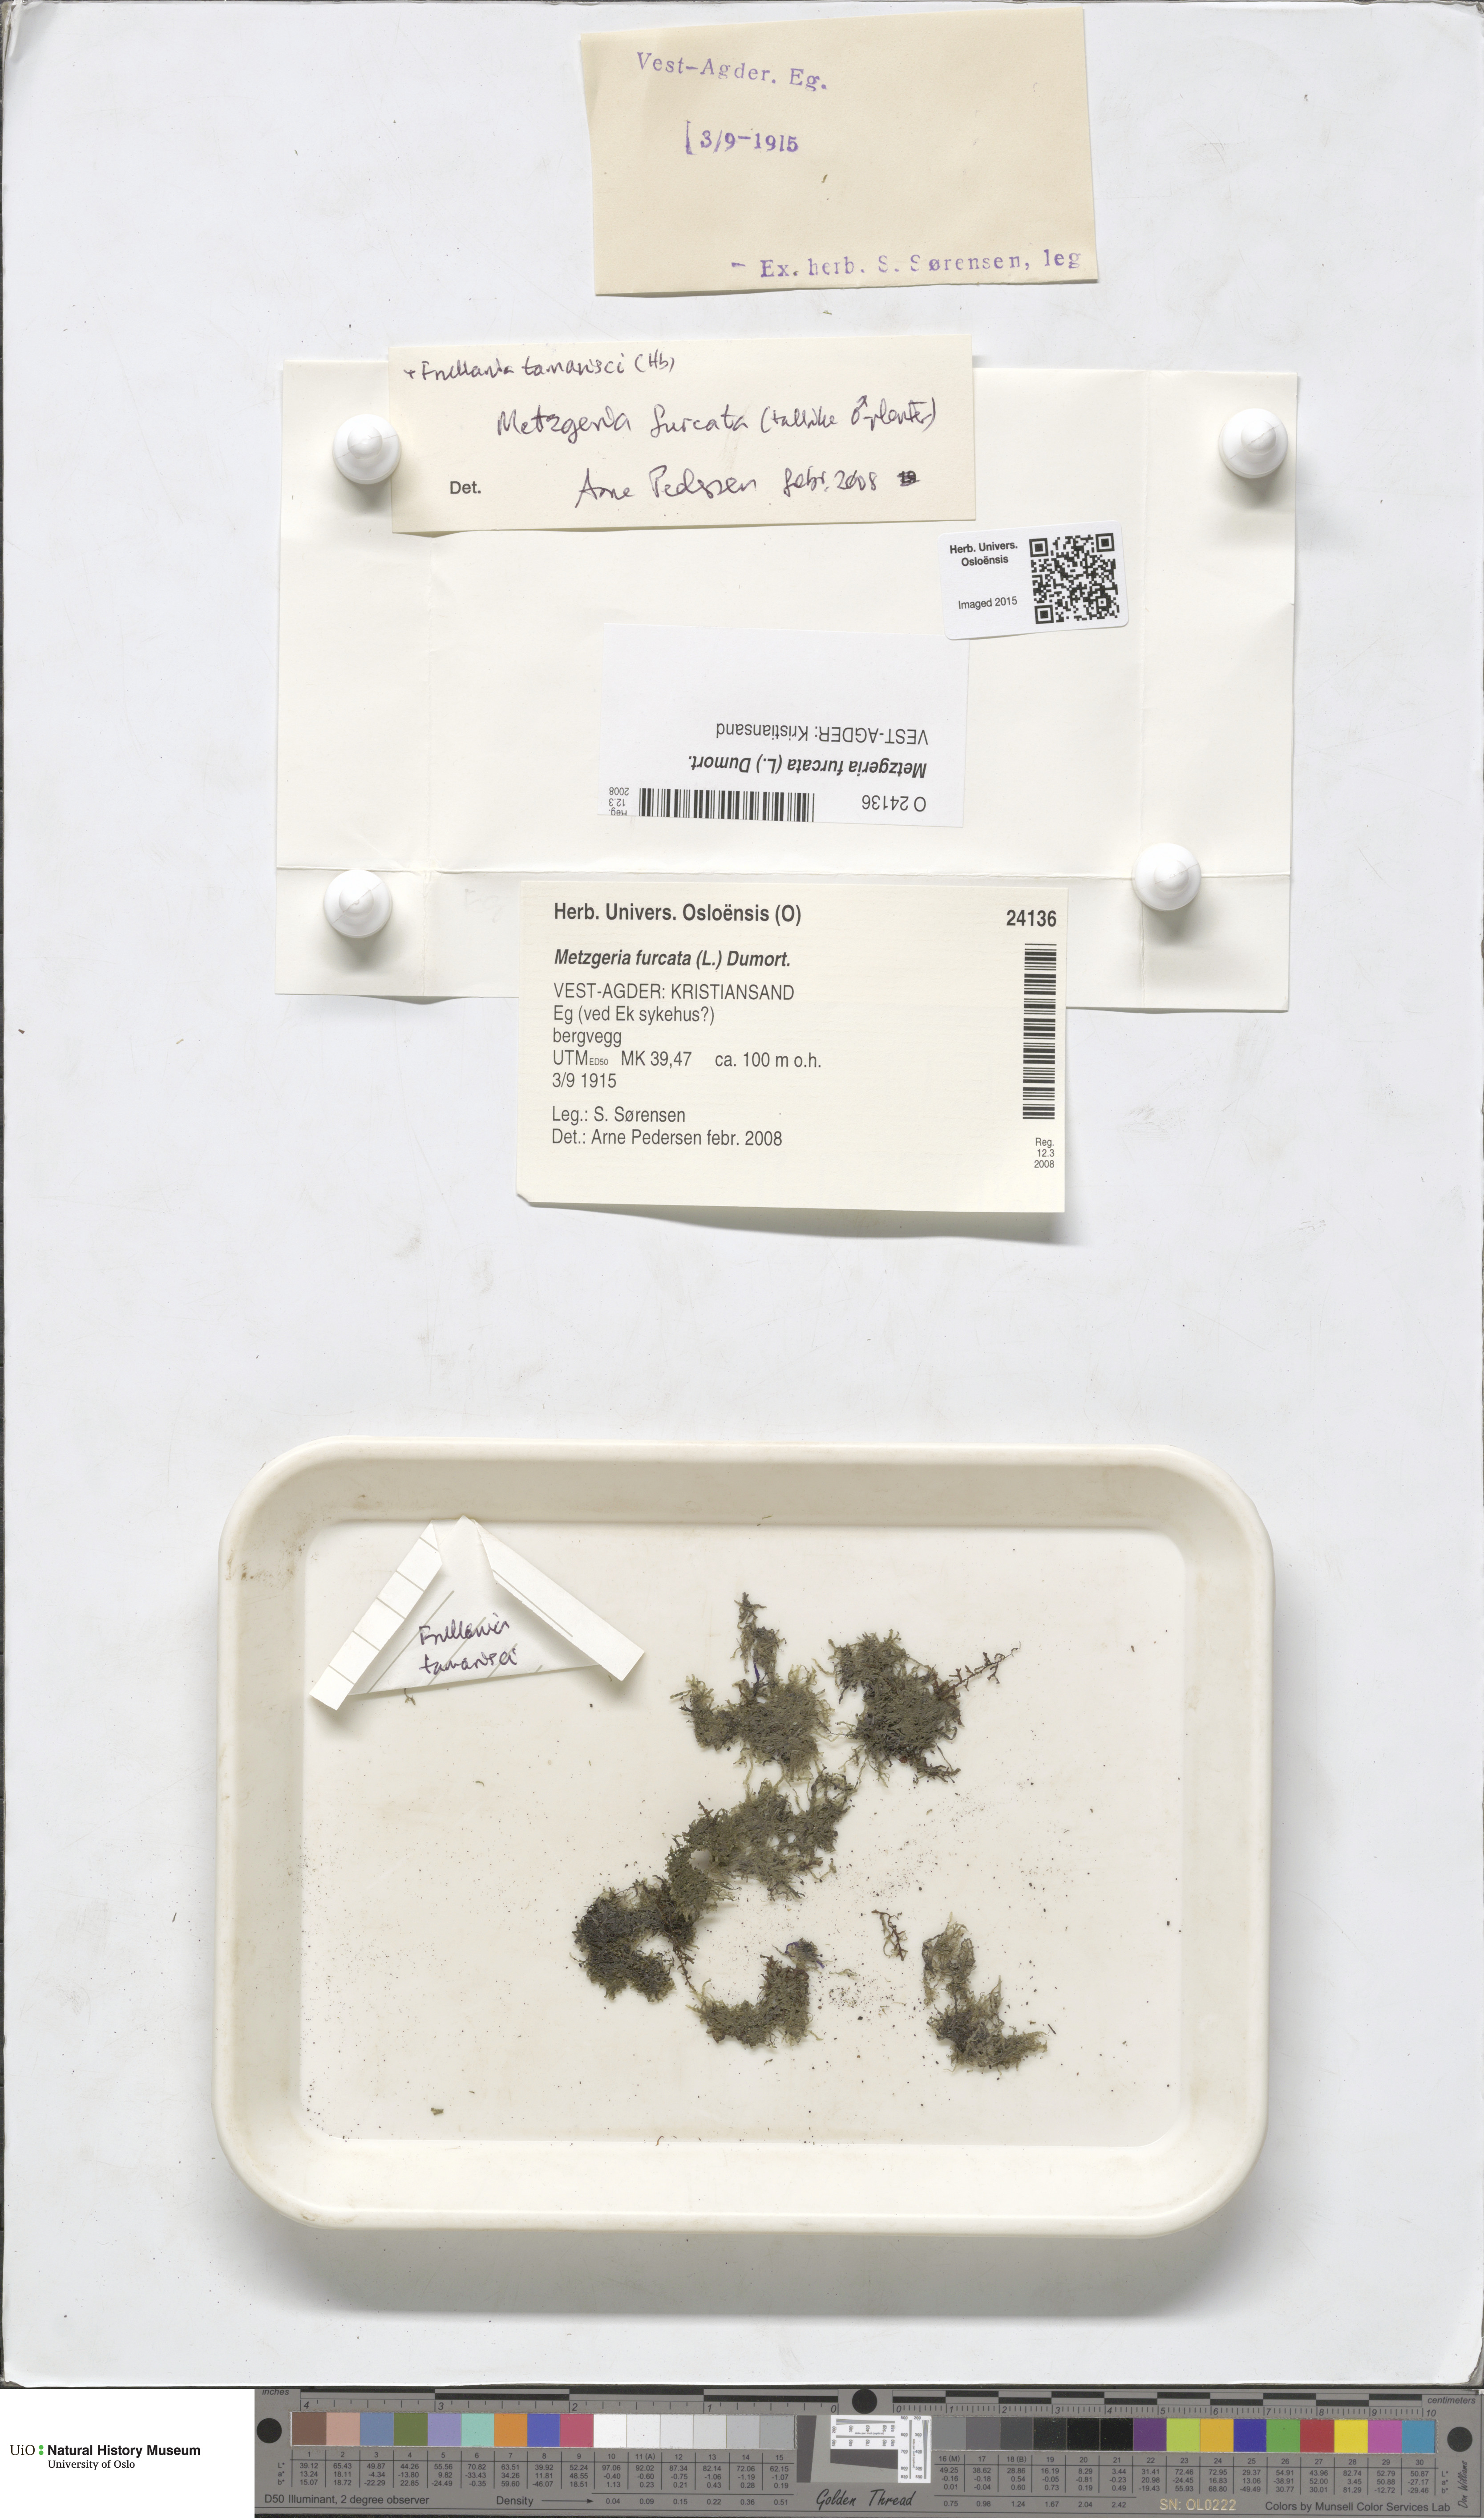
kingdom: Plantae
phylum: Marchantiophyta
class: Jungermanniopsida
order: Metzgeriales
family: Metzgeriaceae
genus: Metzgeria
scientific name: Metzgeria furcata
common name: Forked veilwort
